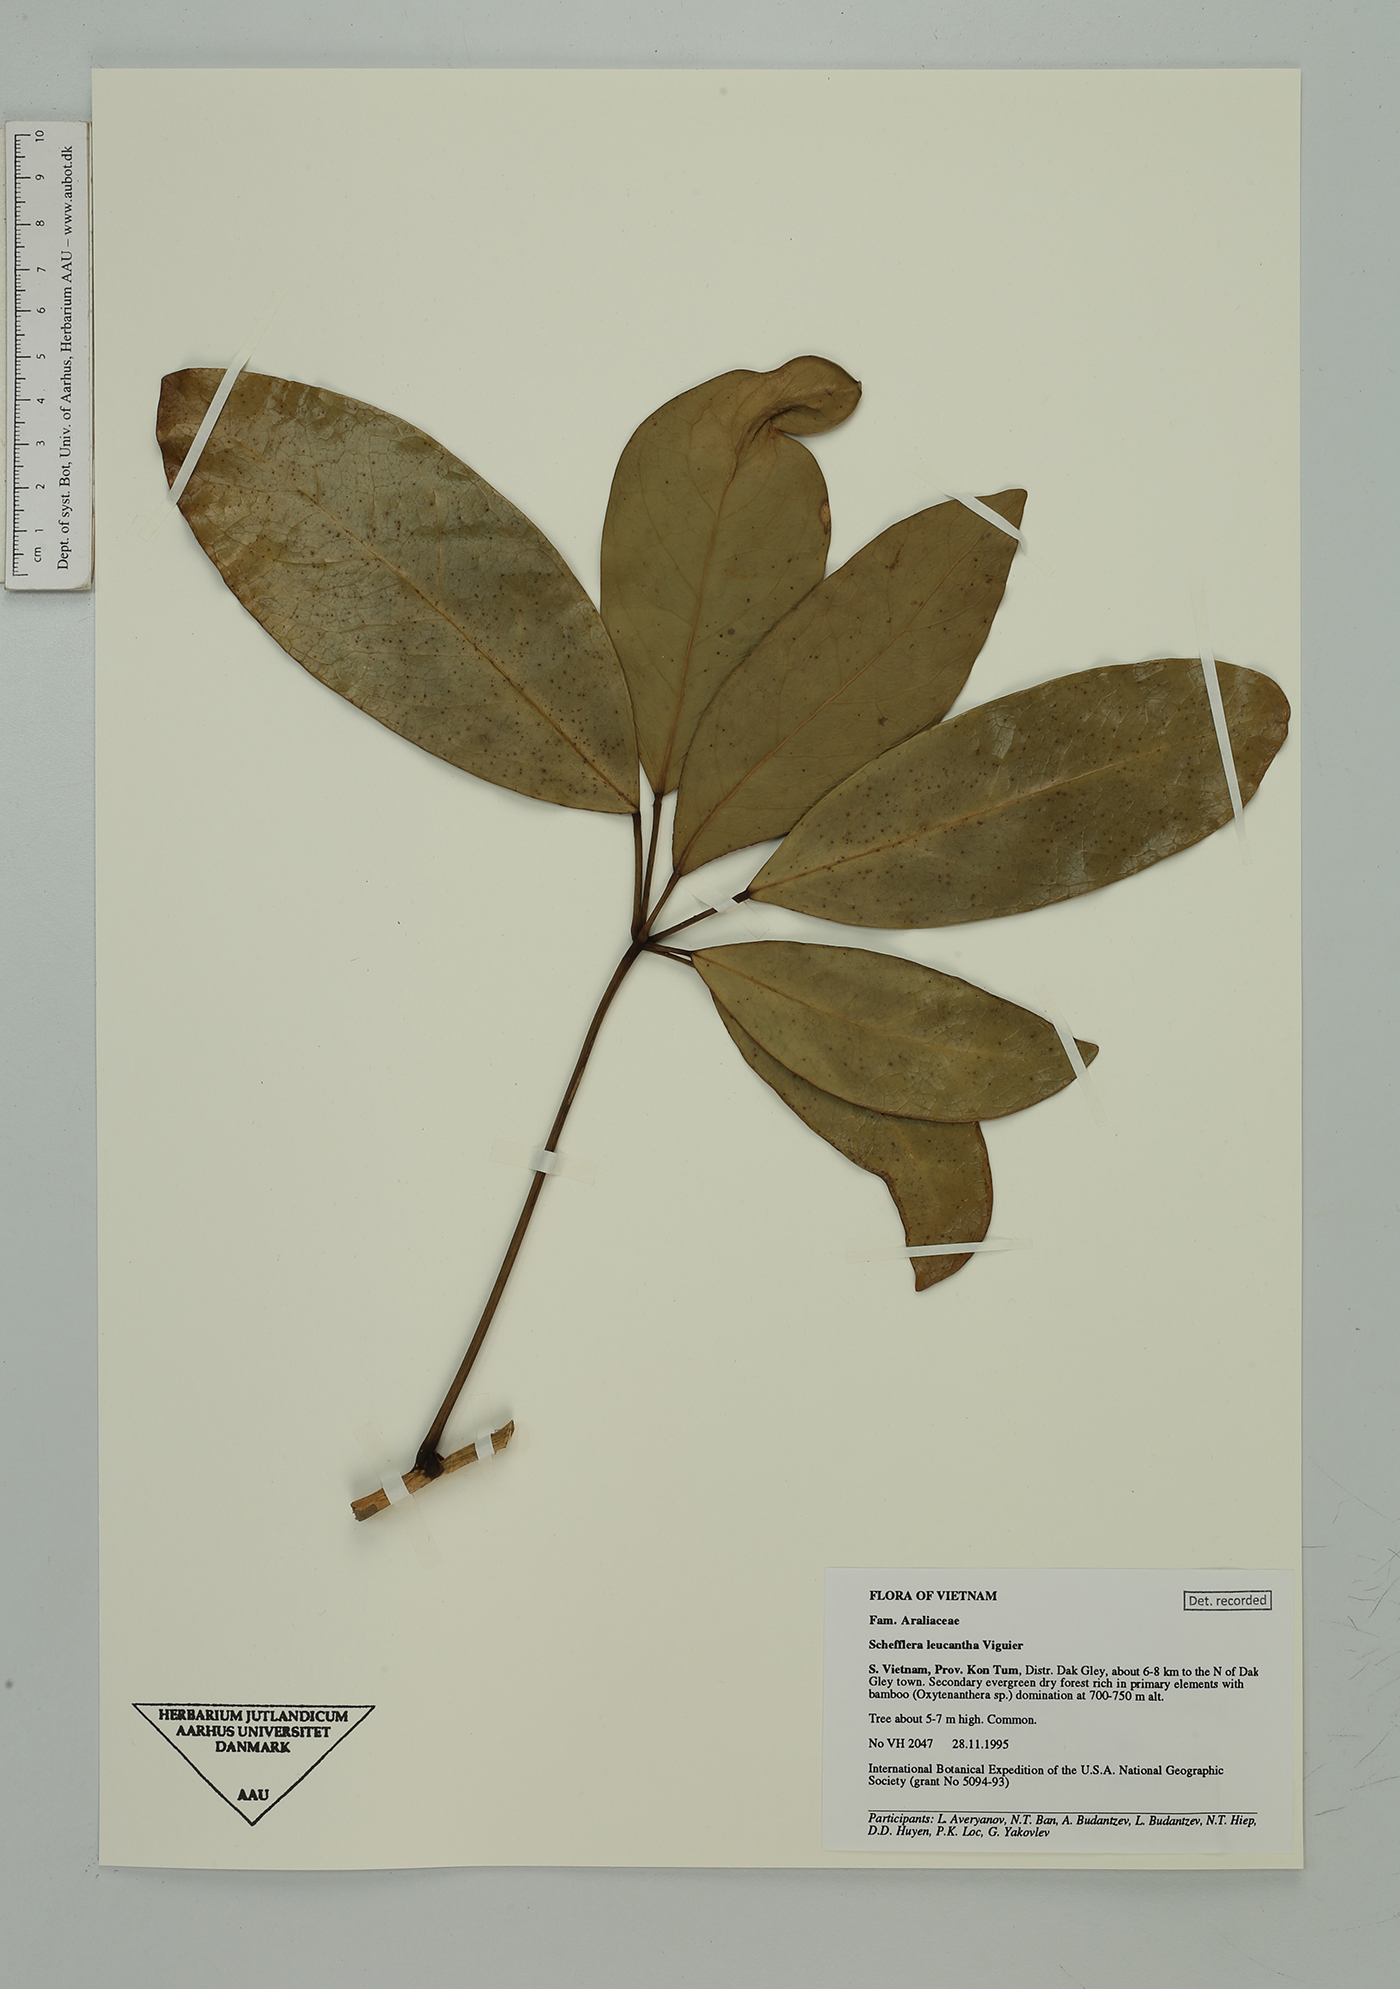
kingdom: Plantae
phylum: Tracheophyta
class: Magnoliopsida
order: Apiales
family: Araliaceae
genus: Heptapleurum
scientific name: Heptapleurum leucanthum
